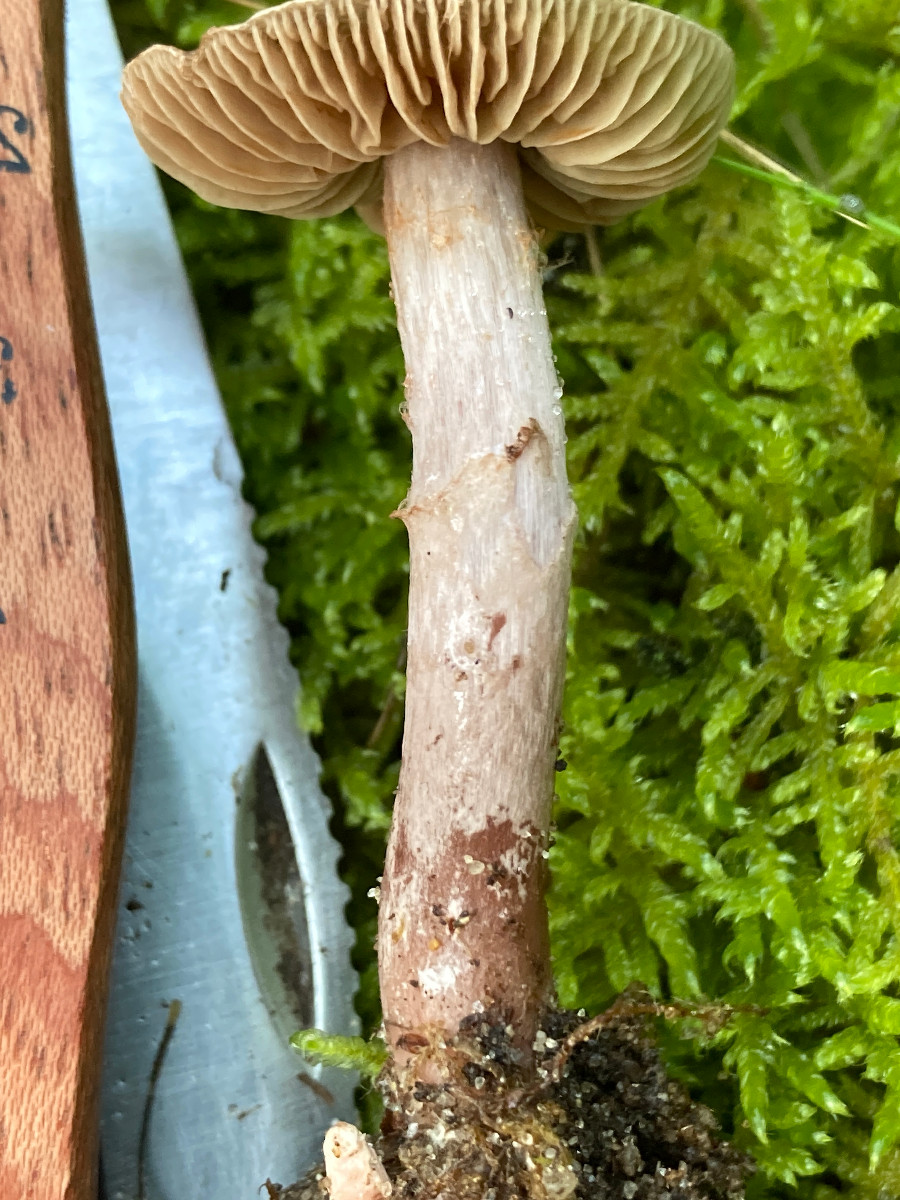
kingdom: Fungi
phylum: Basidiomycota
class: Agaricomycetes
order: Agaricales
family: Cortinariaceae
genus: Cortinarius
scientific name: Cortinarius
